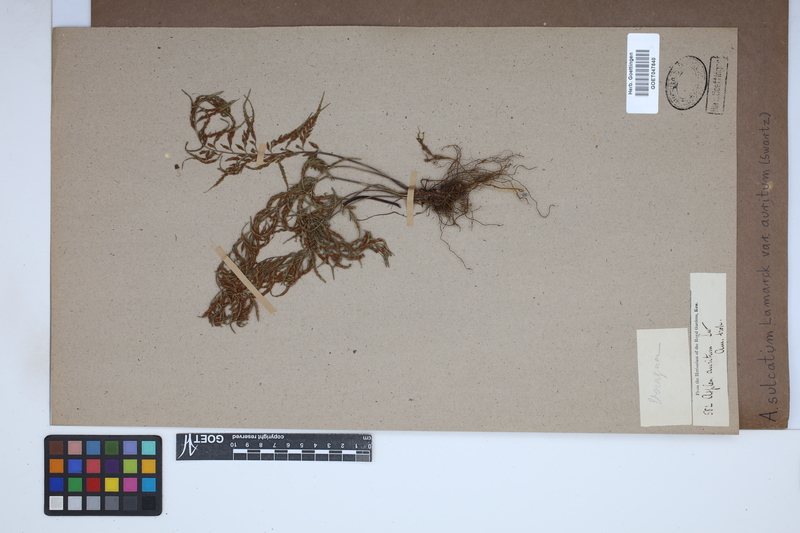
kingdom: Plantae
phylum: Tracheophyta
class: Polypodiopsida
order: Polypodiales
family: Aspleniaceae
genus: Asplenium
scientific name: Asplenium auritum
